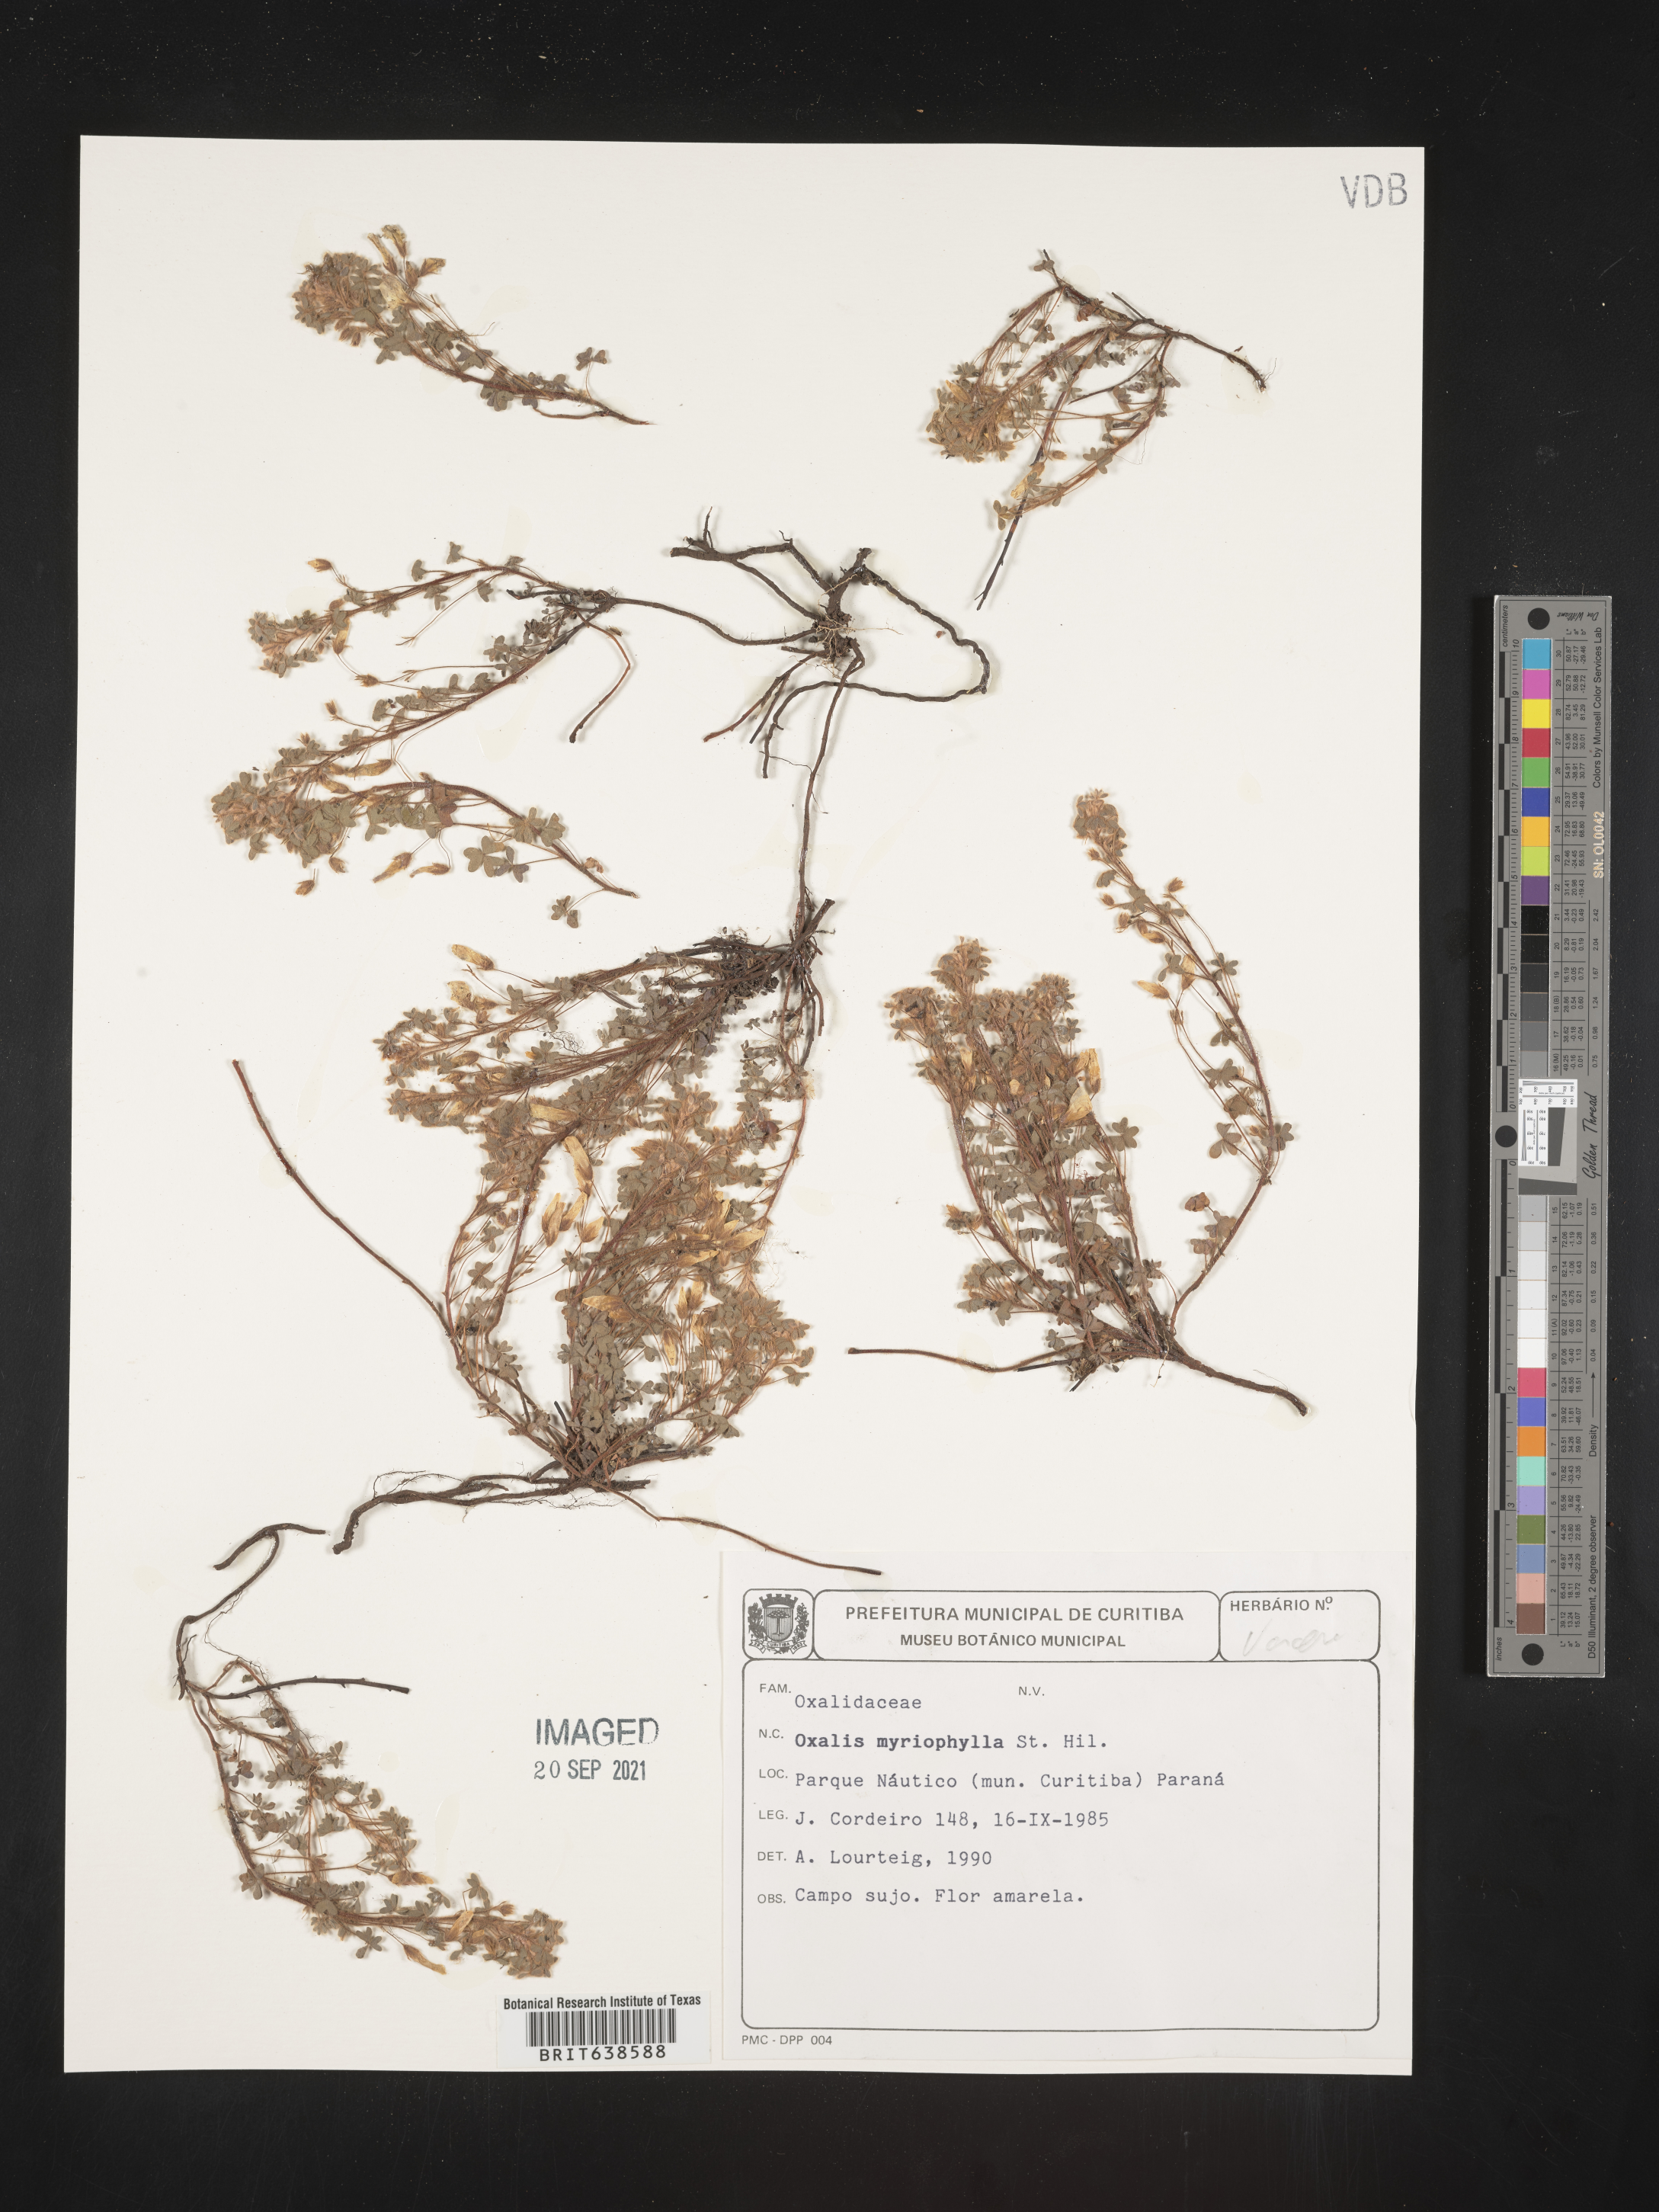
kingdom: Plantae
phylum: Tracheophyta
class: Magnoliopsida
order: Oxalidales
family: Oxalidaceae
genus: Oxalis
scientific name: Oxalis
